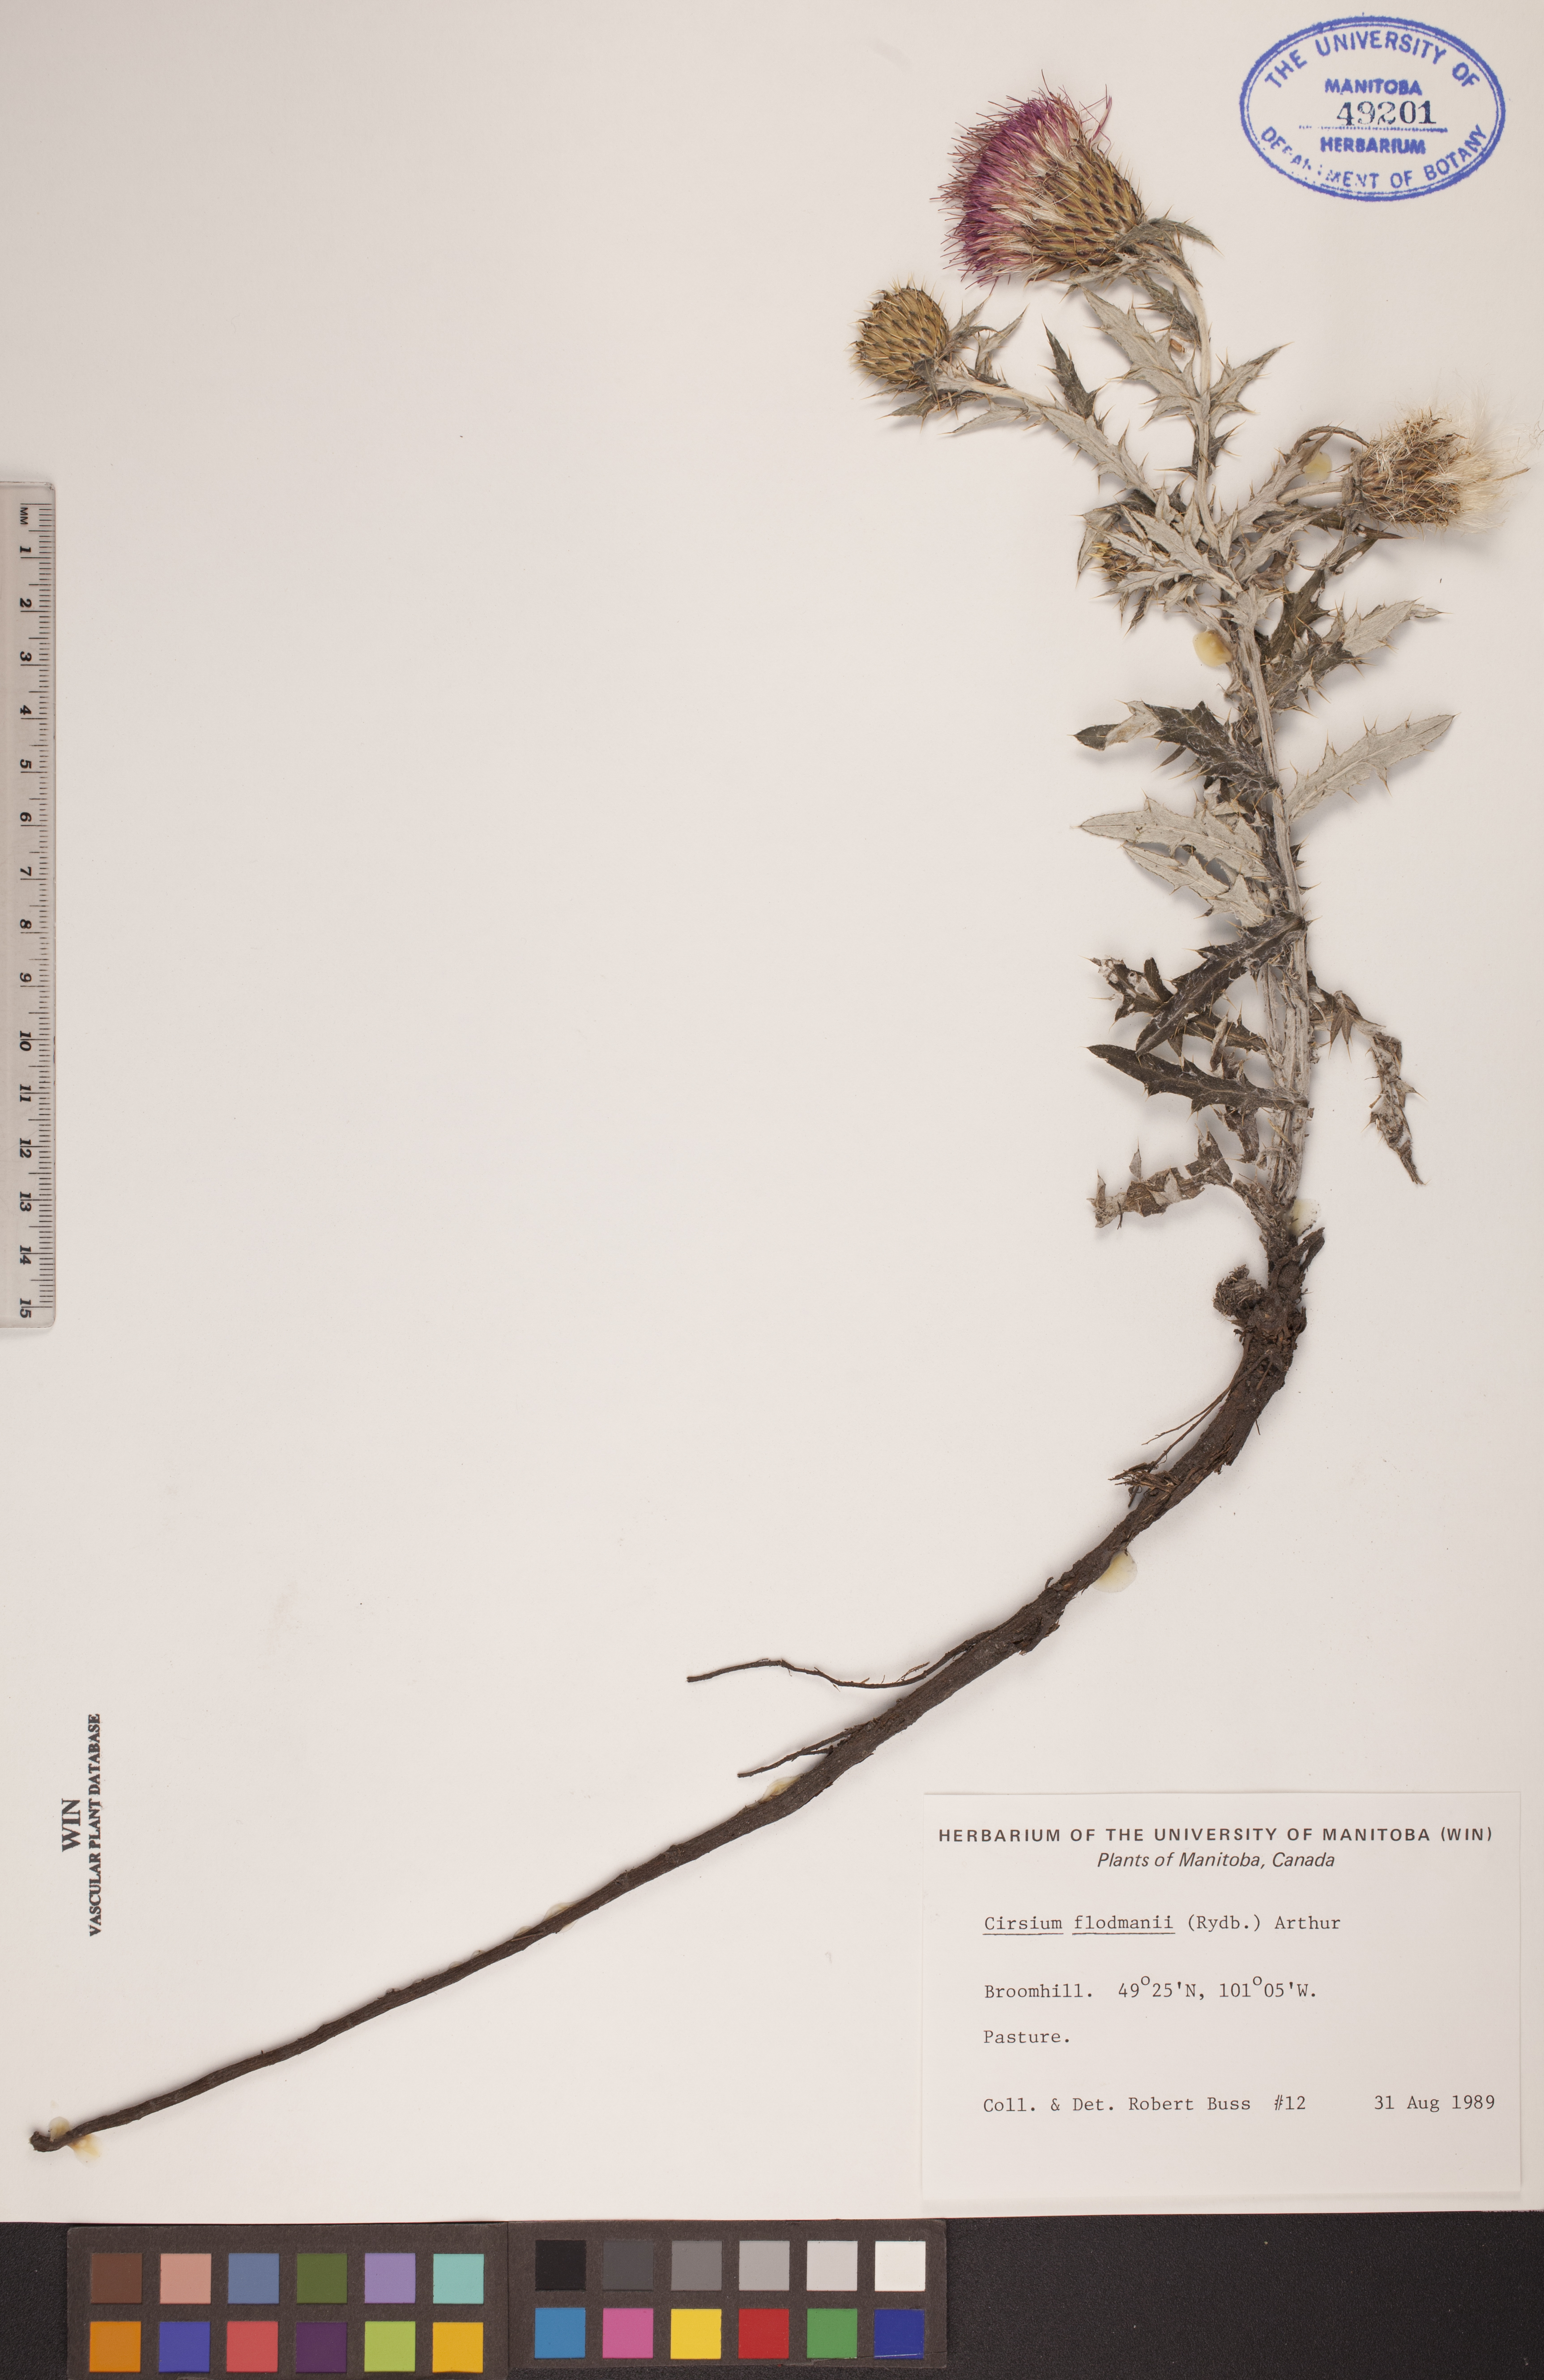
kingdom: Plantae
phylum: Tracheophyta
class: Magnoliopsida
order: Asterales
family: Asteraceae
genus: Cirsium
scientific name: Cirsium flodmanii
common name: Flodman's thistle
